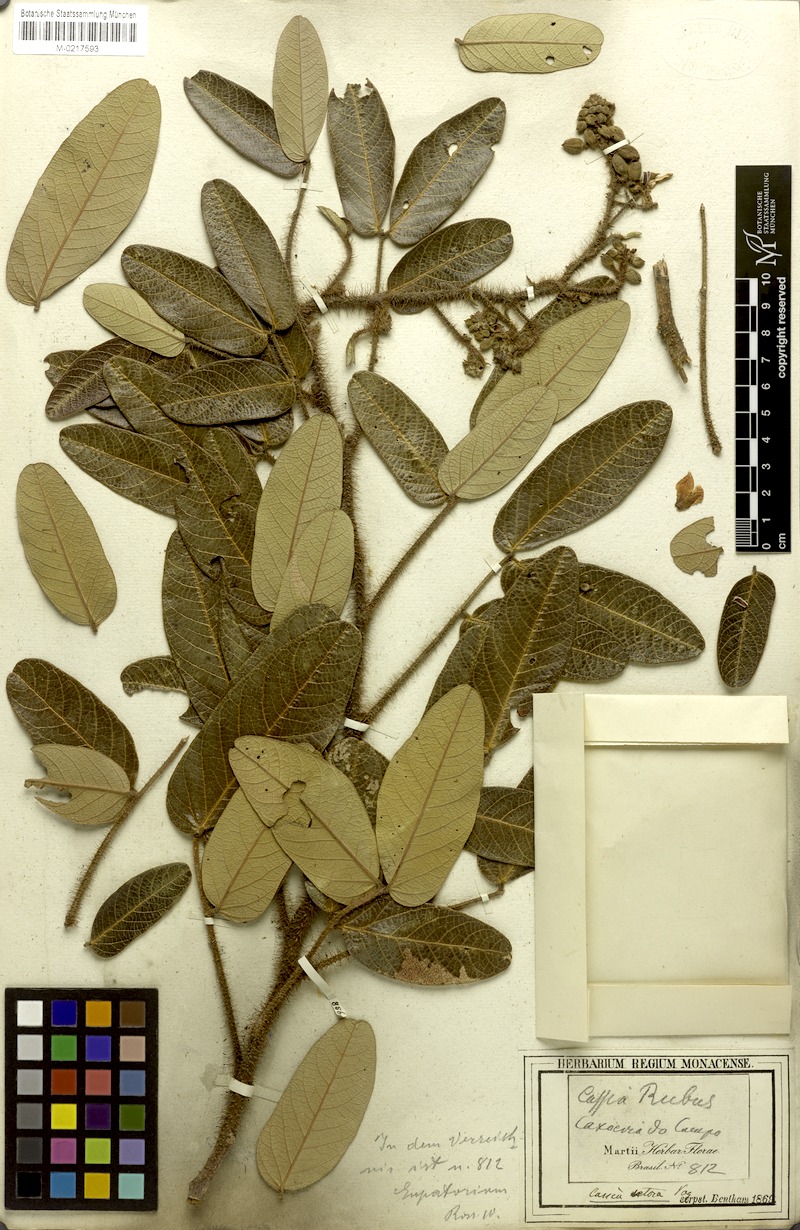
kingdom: Plantae
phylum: Tracheophyta
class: Magnoliopsida
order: Fabales
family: Fabaceae
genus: Chamaecrista
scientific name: Chamaecrista setosa
